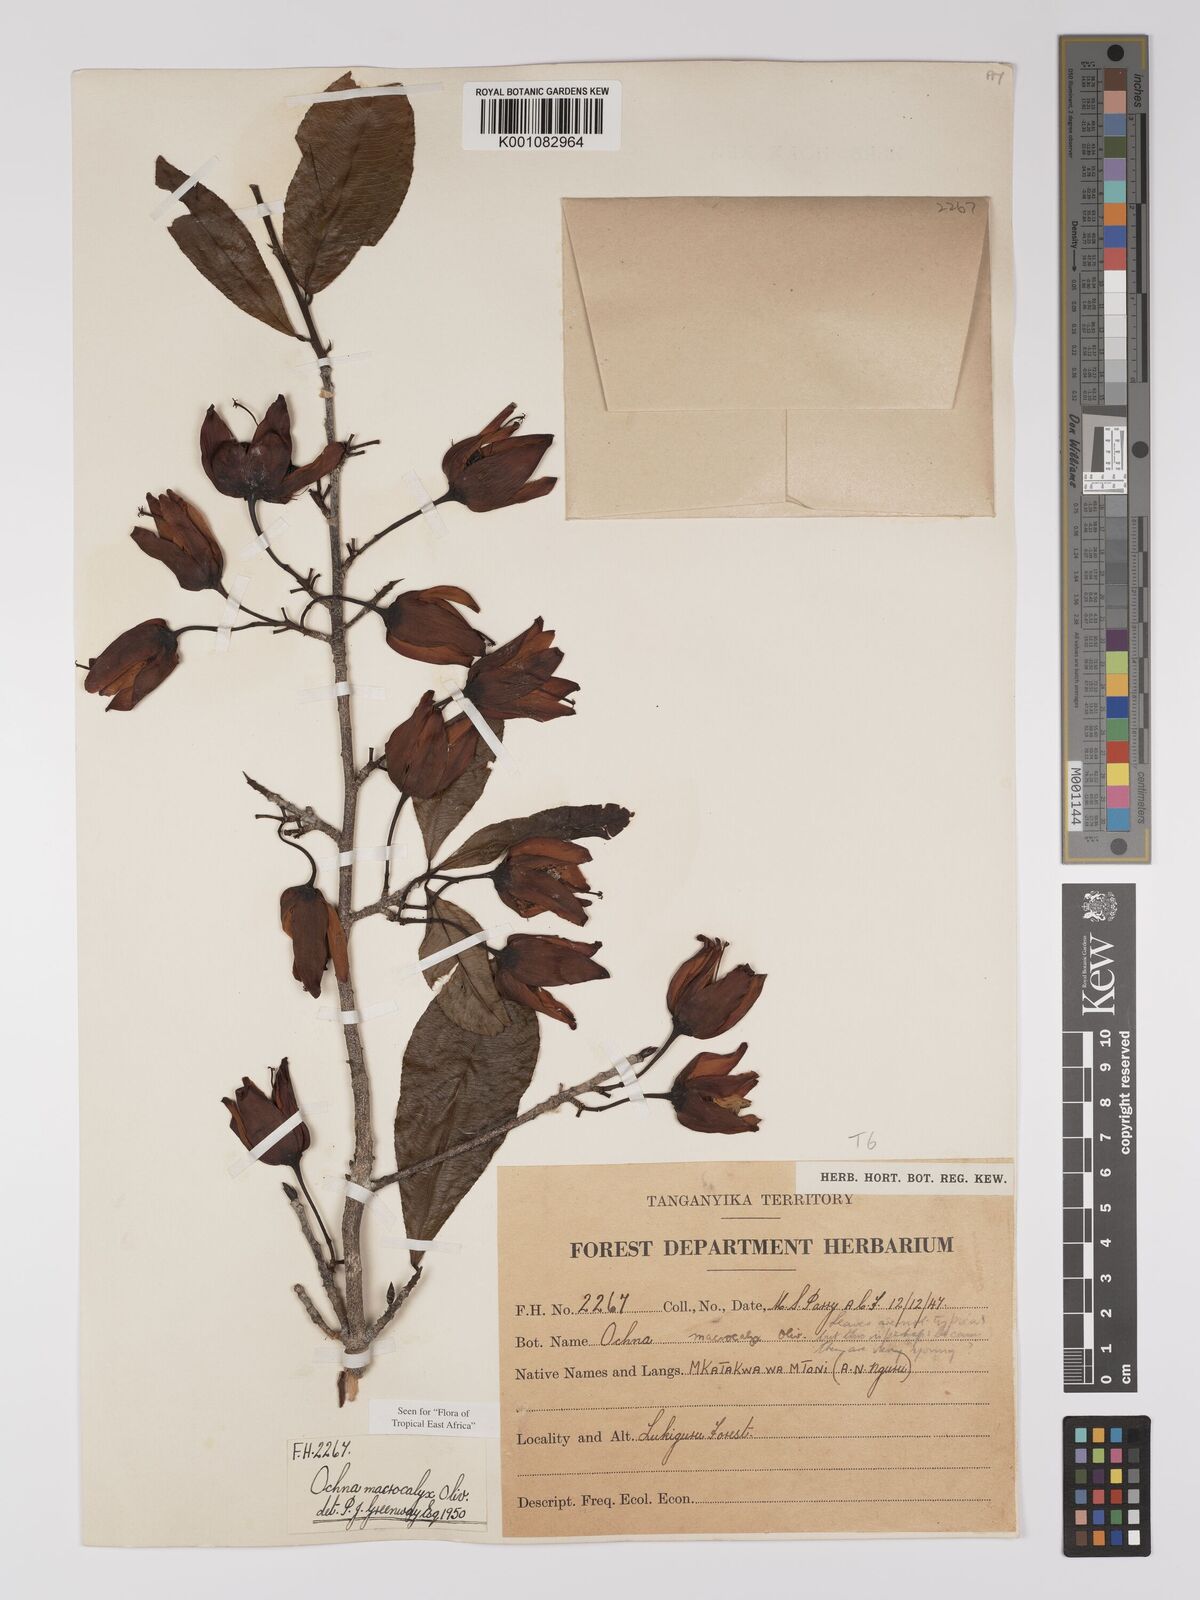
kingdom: Plantae
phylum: Tracheophyta
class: Magnoliopsida
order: Malpighiales
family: Ochnaceae
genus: Ochna
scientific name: Ochna macrocalyx
